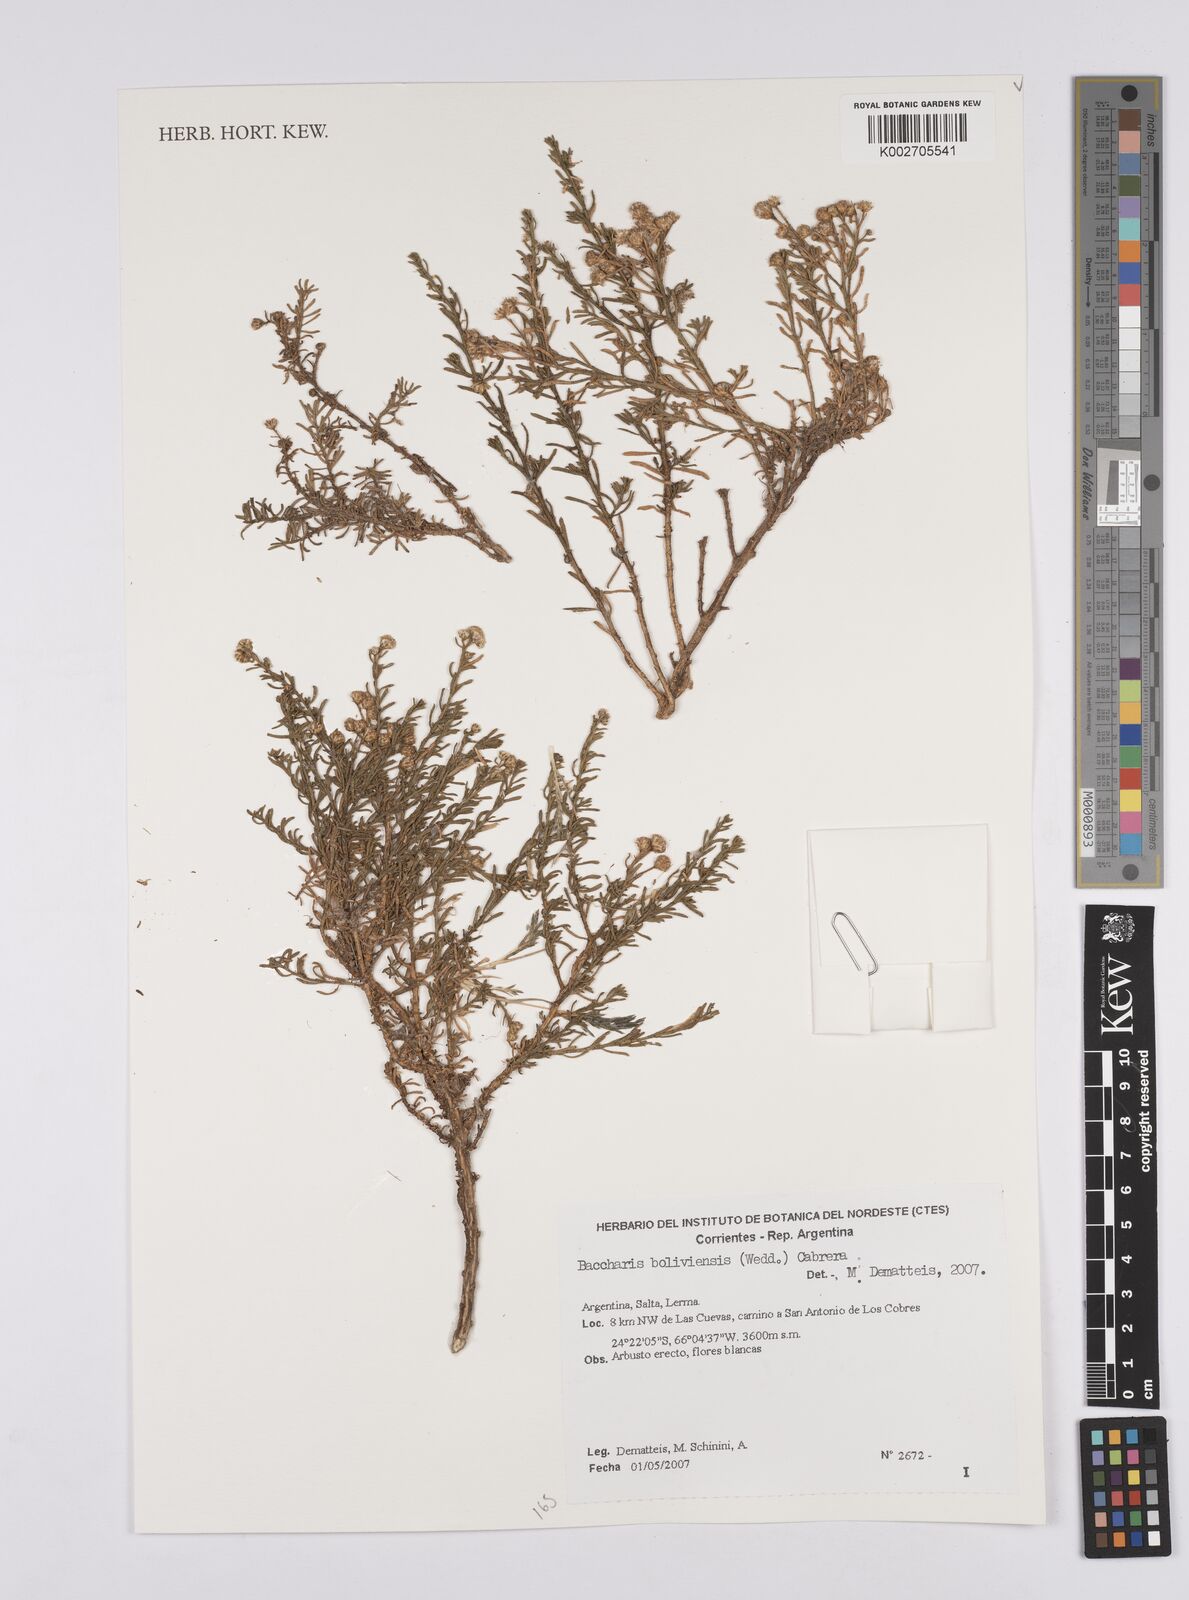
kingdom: Plantae
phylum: Tracheophyta
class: Magnoliopsida
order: Asterales
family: Asteraceae
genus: Baccharis
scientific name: Baccharis bolivensis
